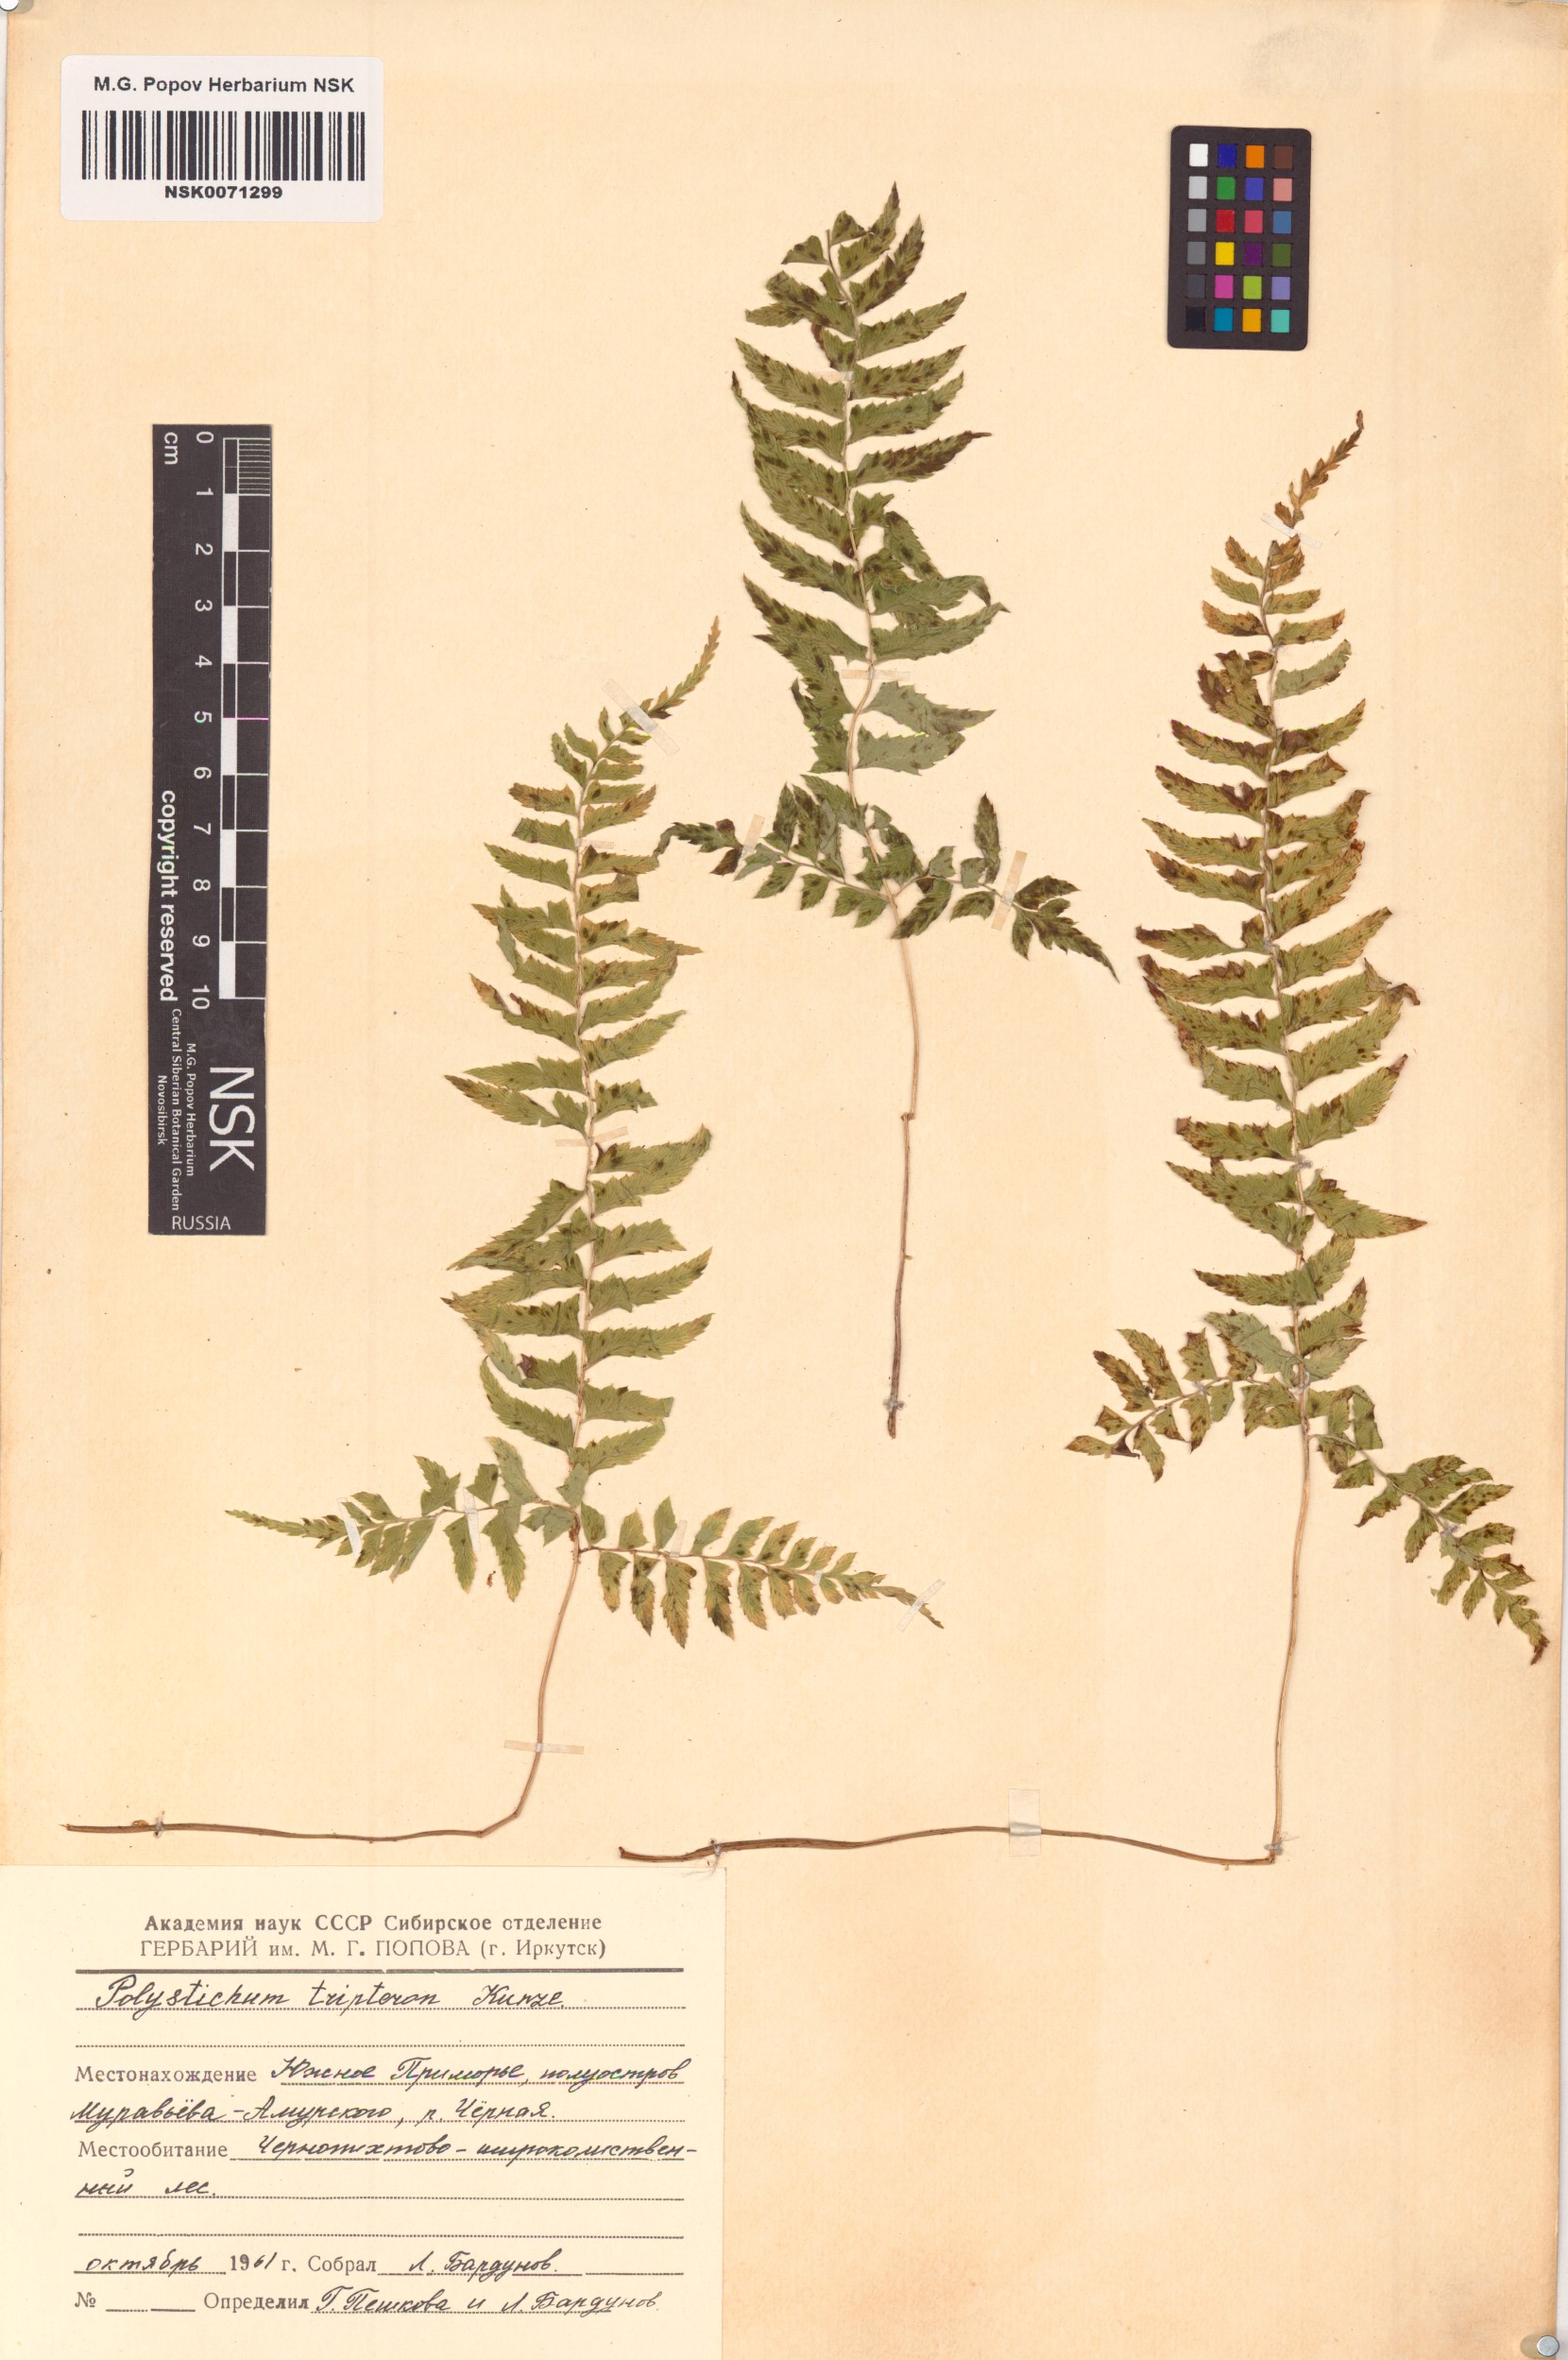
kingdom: Plantae
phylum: Tracheophyta
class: Polypodiopsida
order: Polypodiales
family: Dryopteridaceae
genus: Polystichum
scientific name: Polystichum tripteron
